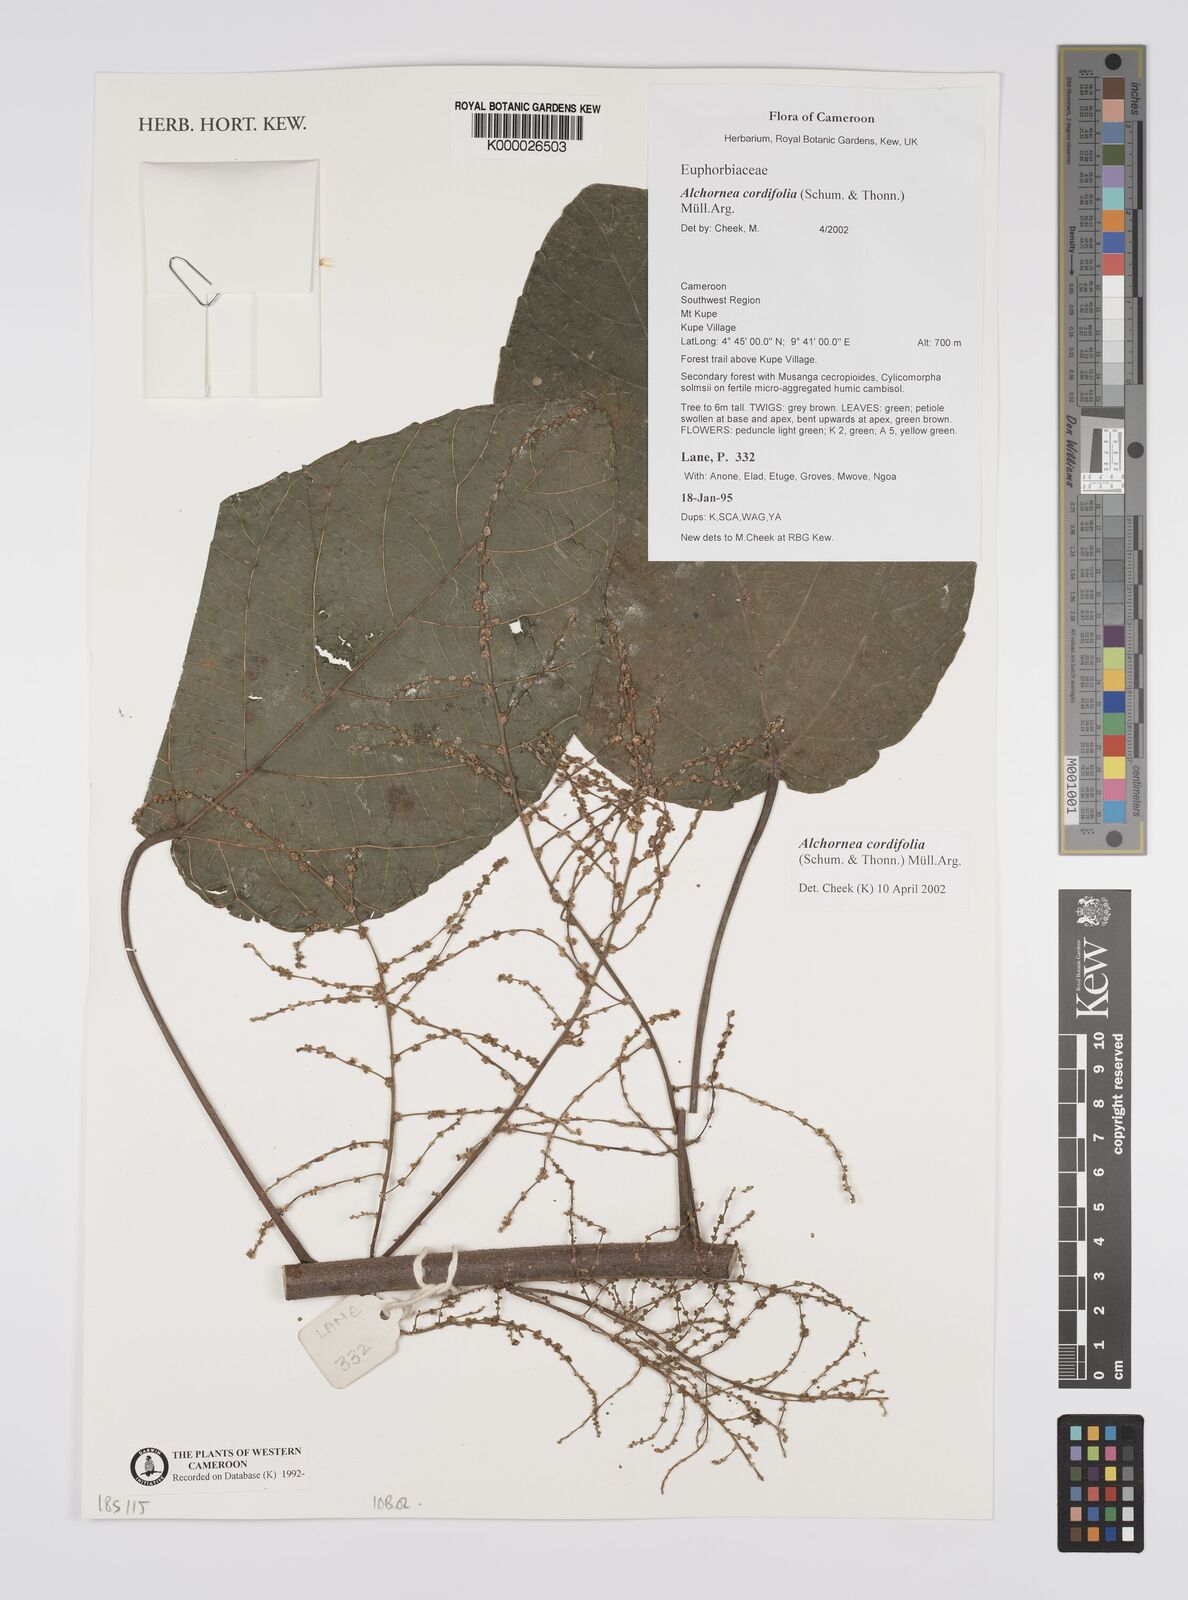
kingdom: Plantae
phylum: Tracheophyta
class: Magnoliopsida
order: Malpighiales
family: Euphorbiaceae
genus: Alchornea
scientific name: Alchornea
